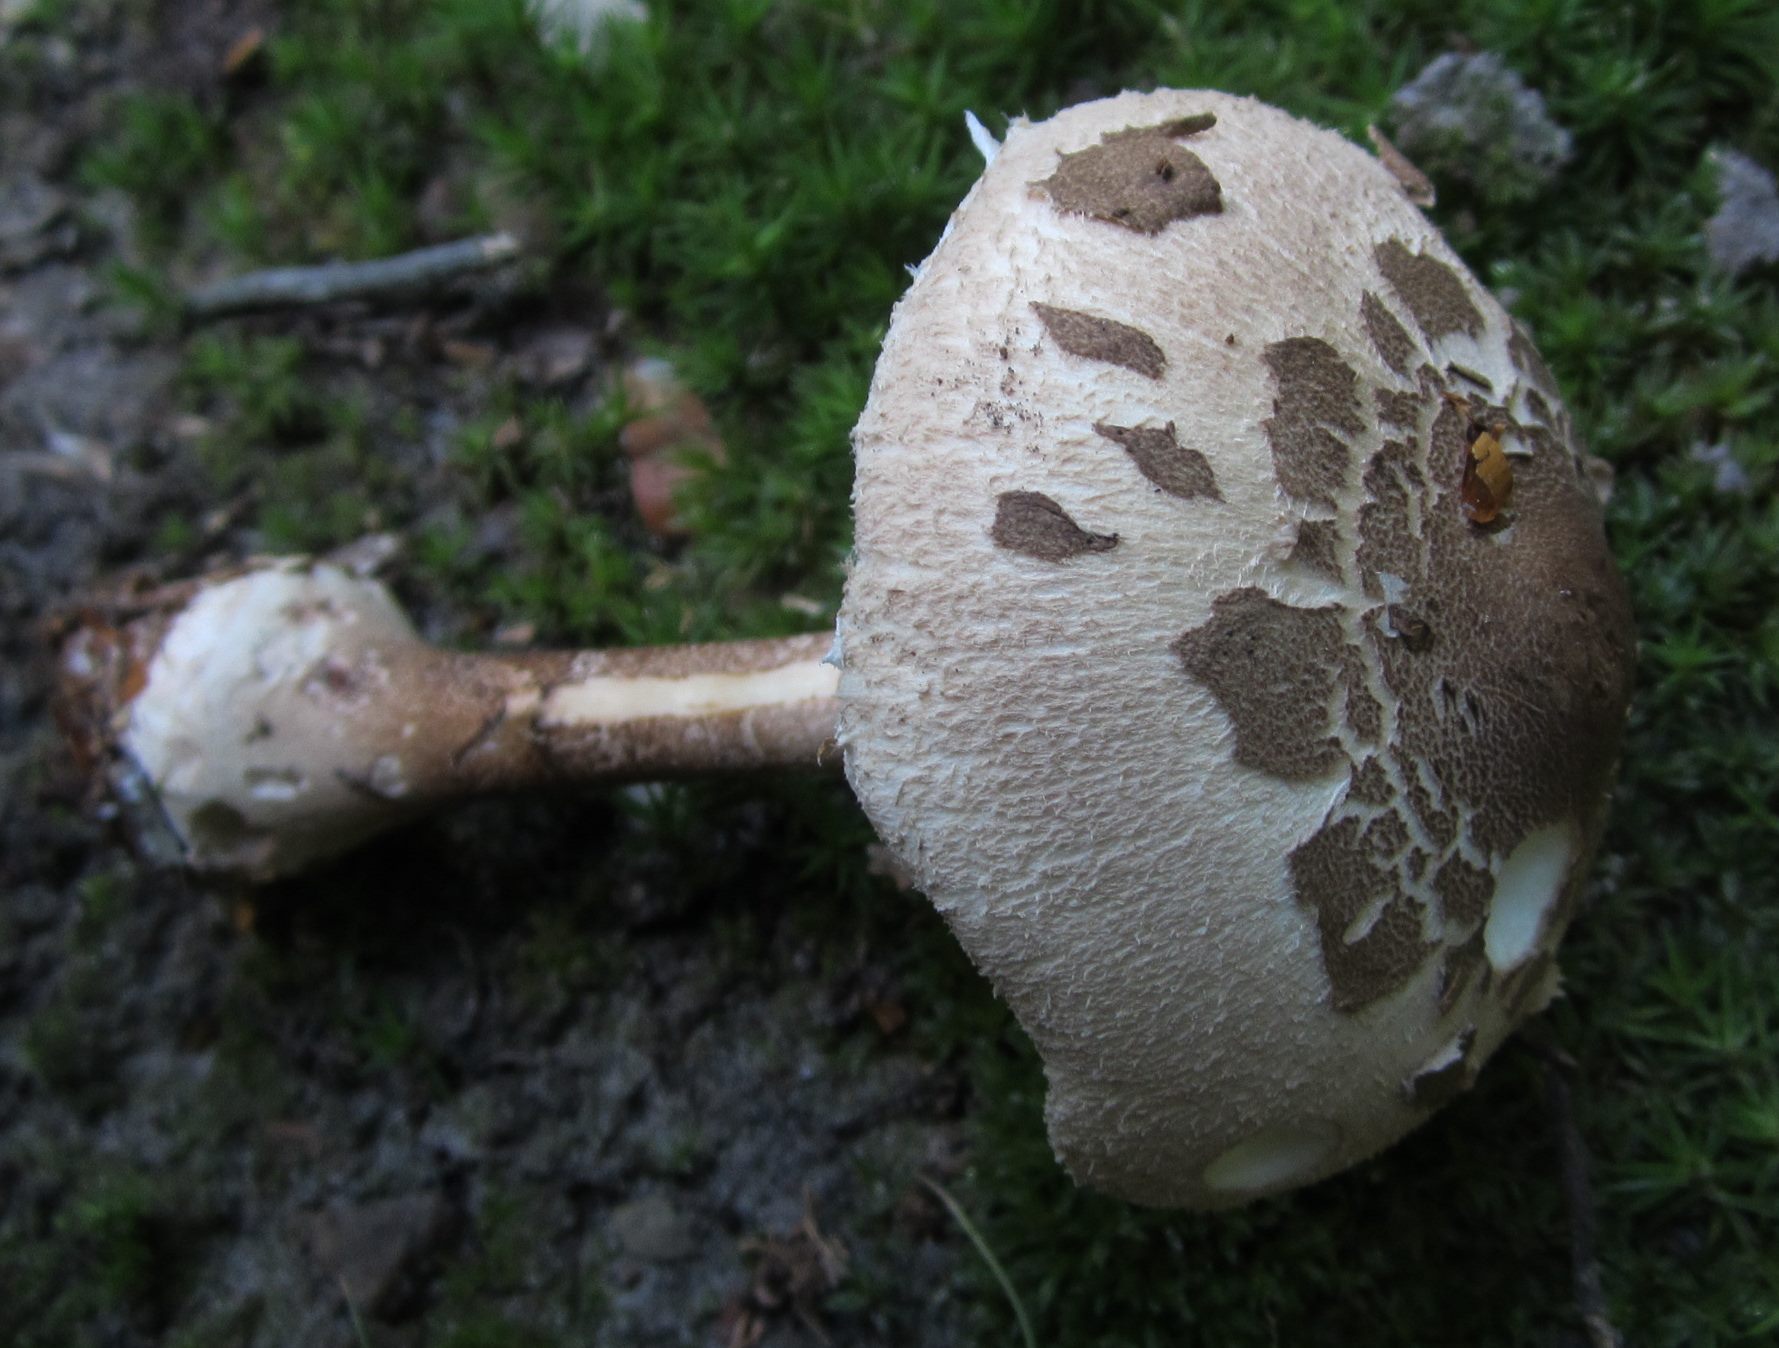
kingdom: Fungi
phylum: Basidiomycota
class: Agaricomycetes
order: Agaricales
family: Agaricaceae
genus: Macrolepiota
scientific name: Macrolepiota fuliginosa
